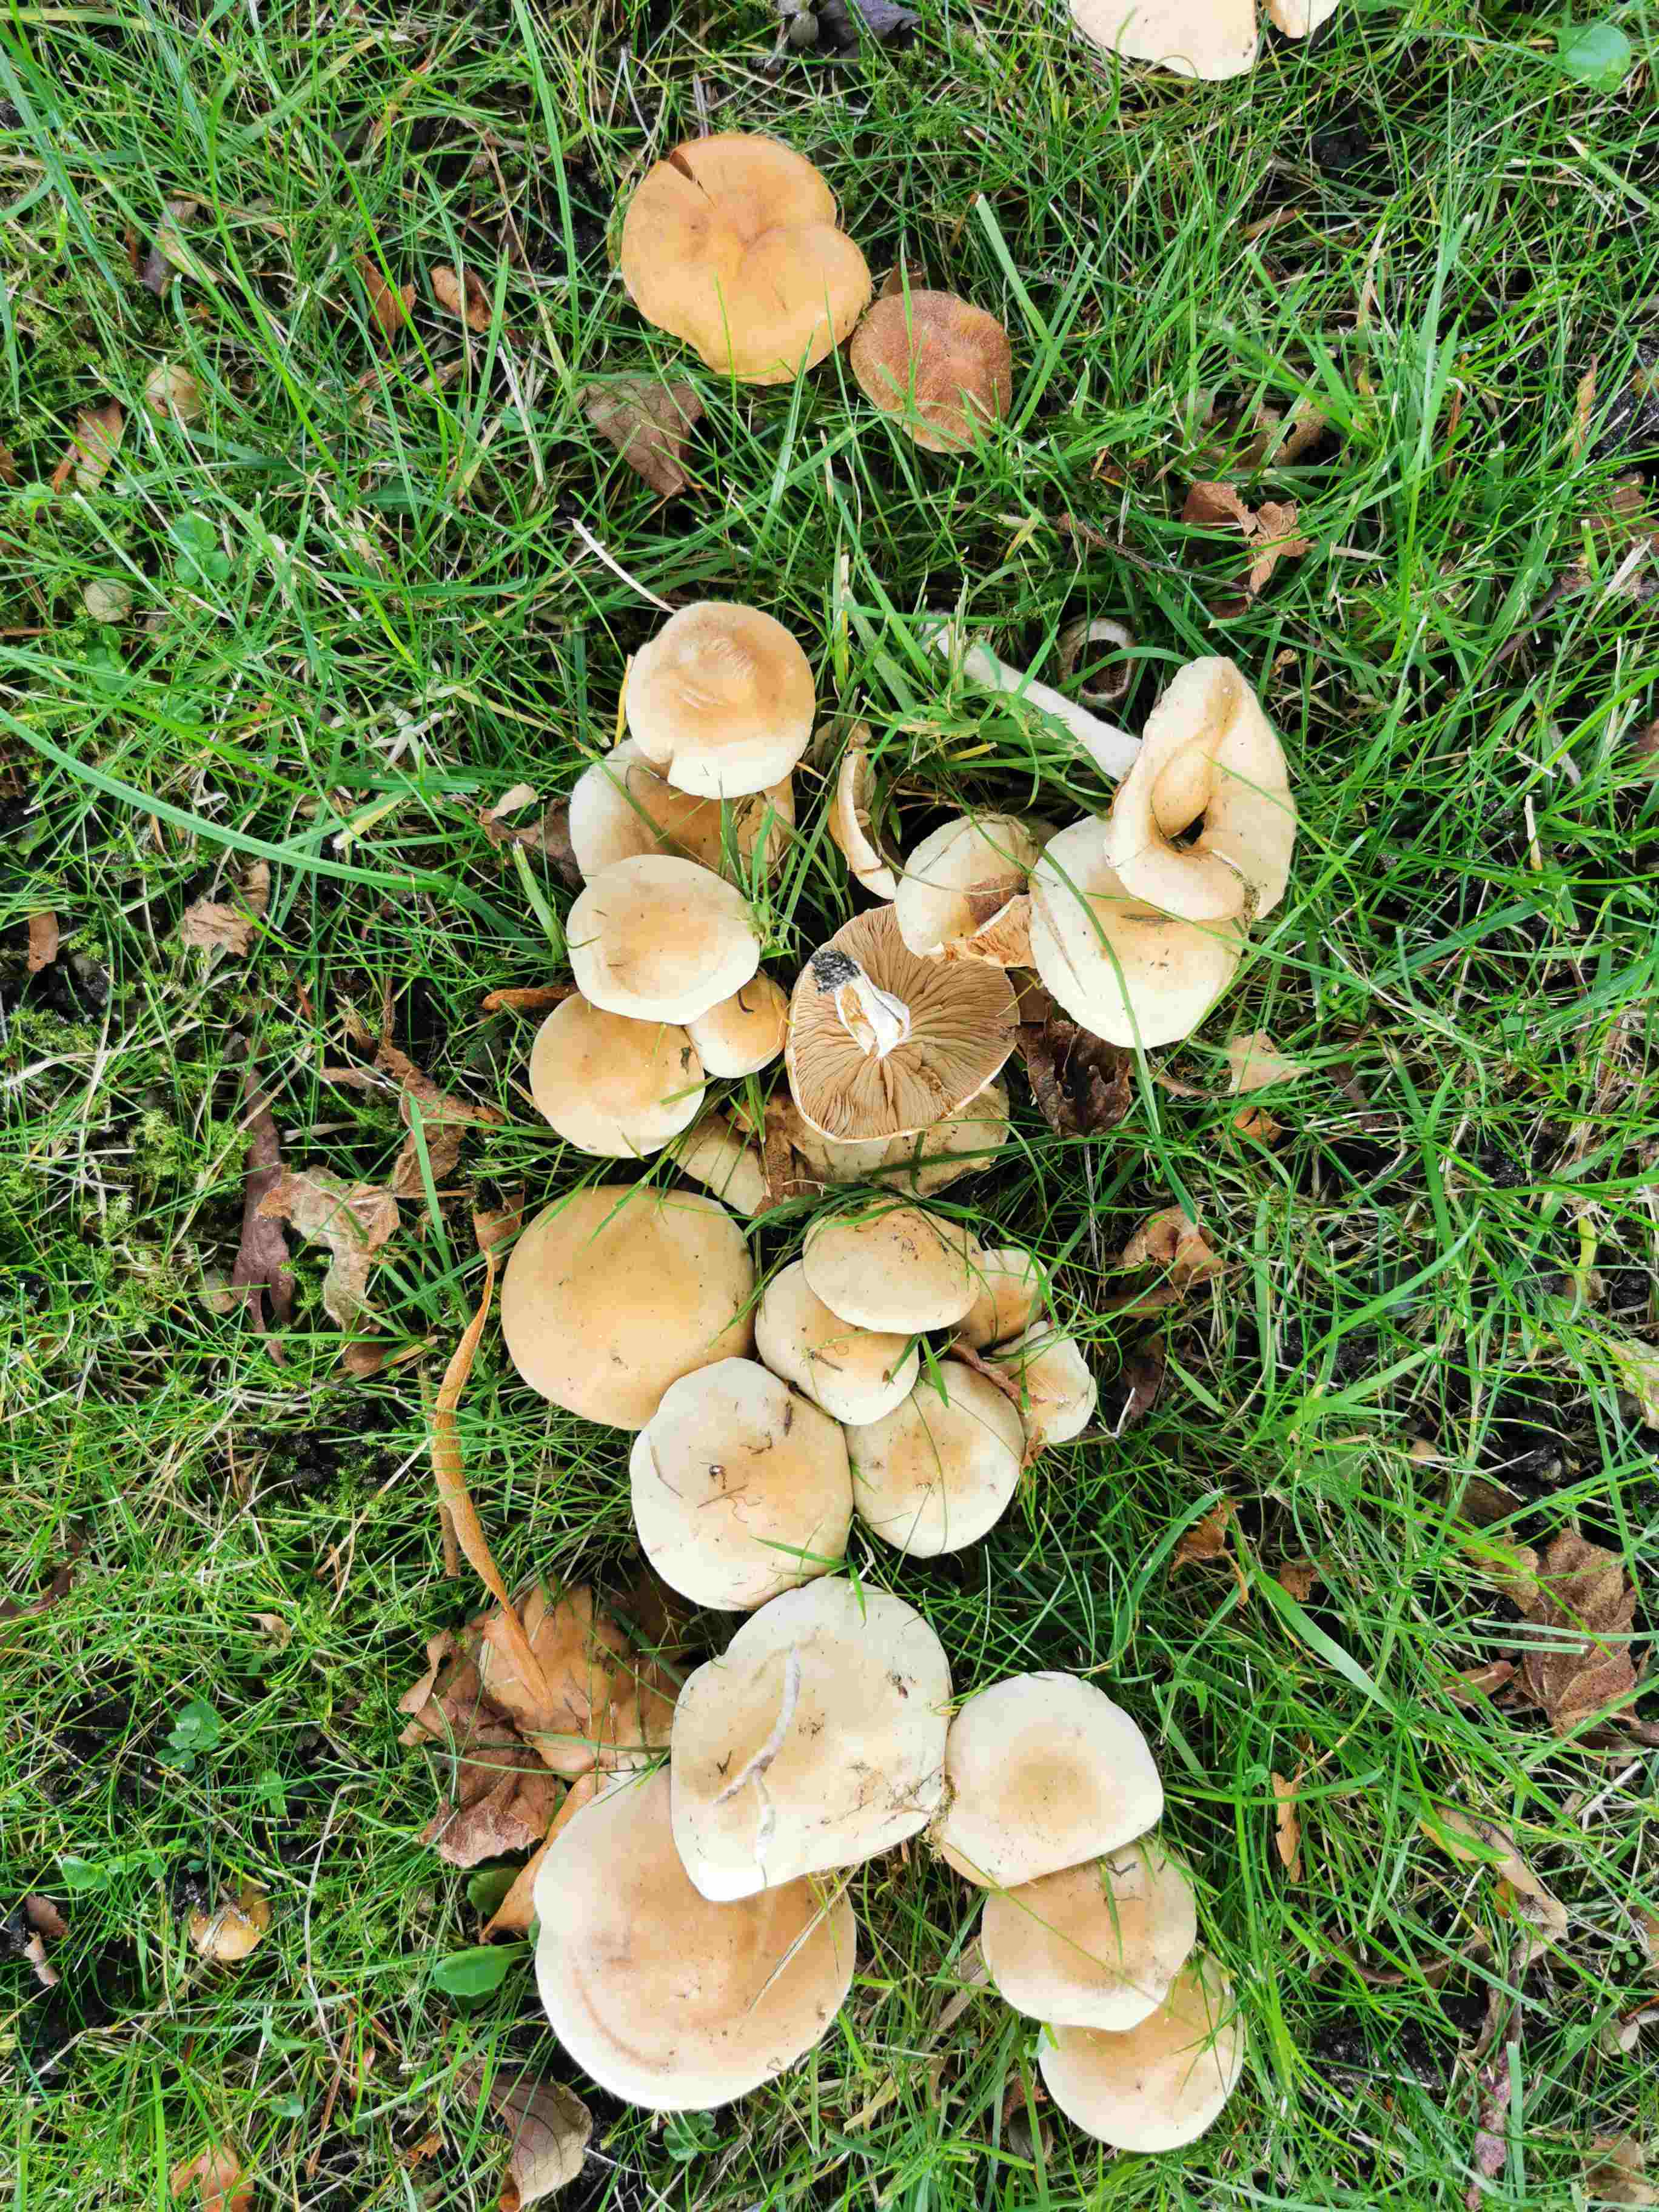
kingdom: Fungi
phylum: Basidiomycota
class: Agaricomycetes
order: Agaricales
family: Hymenogastraceae
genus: Hebeloma
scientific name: Hebeloma
